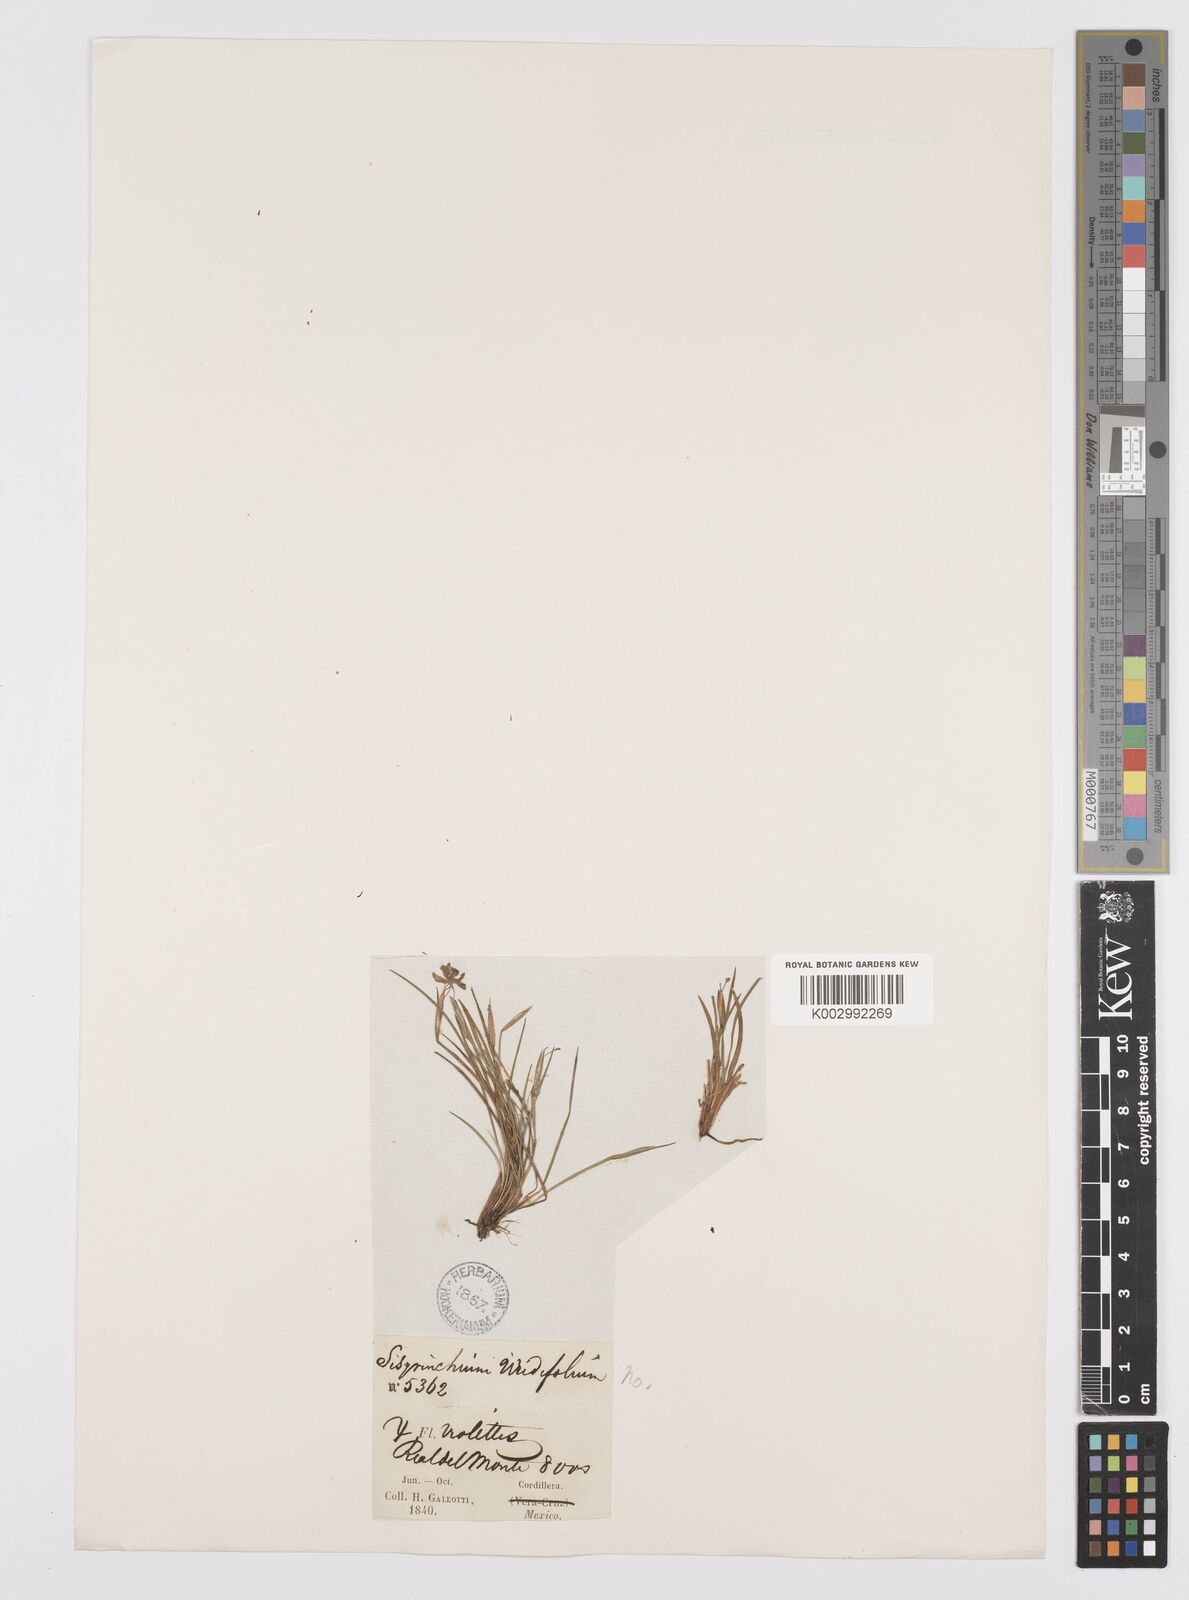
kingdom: Plantae
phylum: Tracheophyta
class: Liliopsida
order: Asparagales
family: Iridaceae
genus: Sisyrinchium
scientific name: Sisyrinchium
